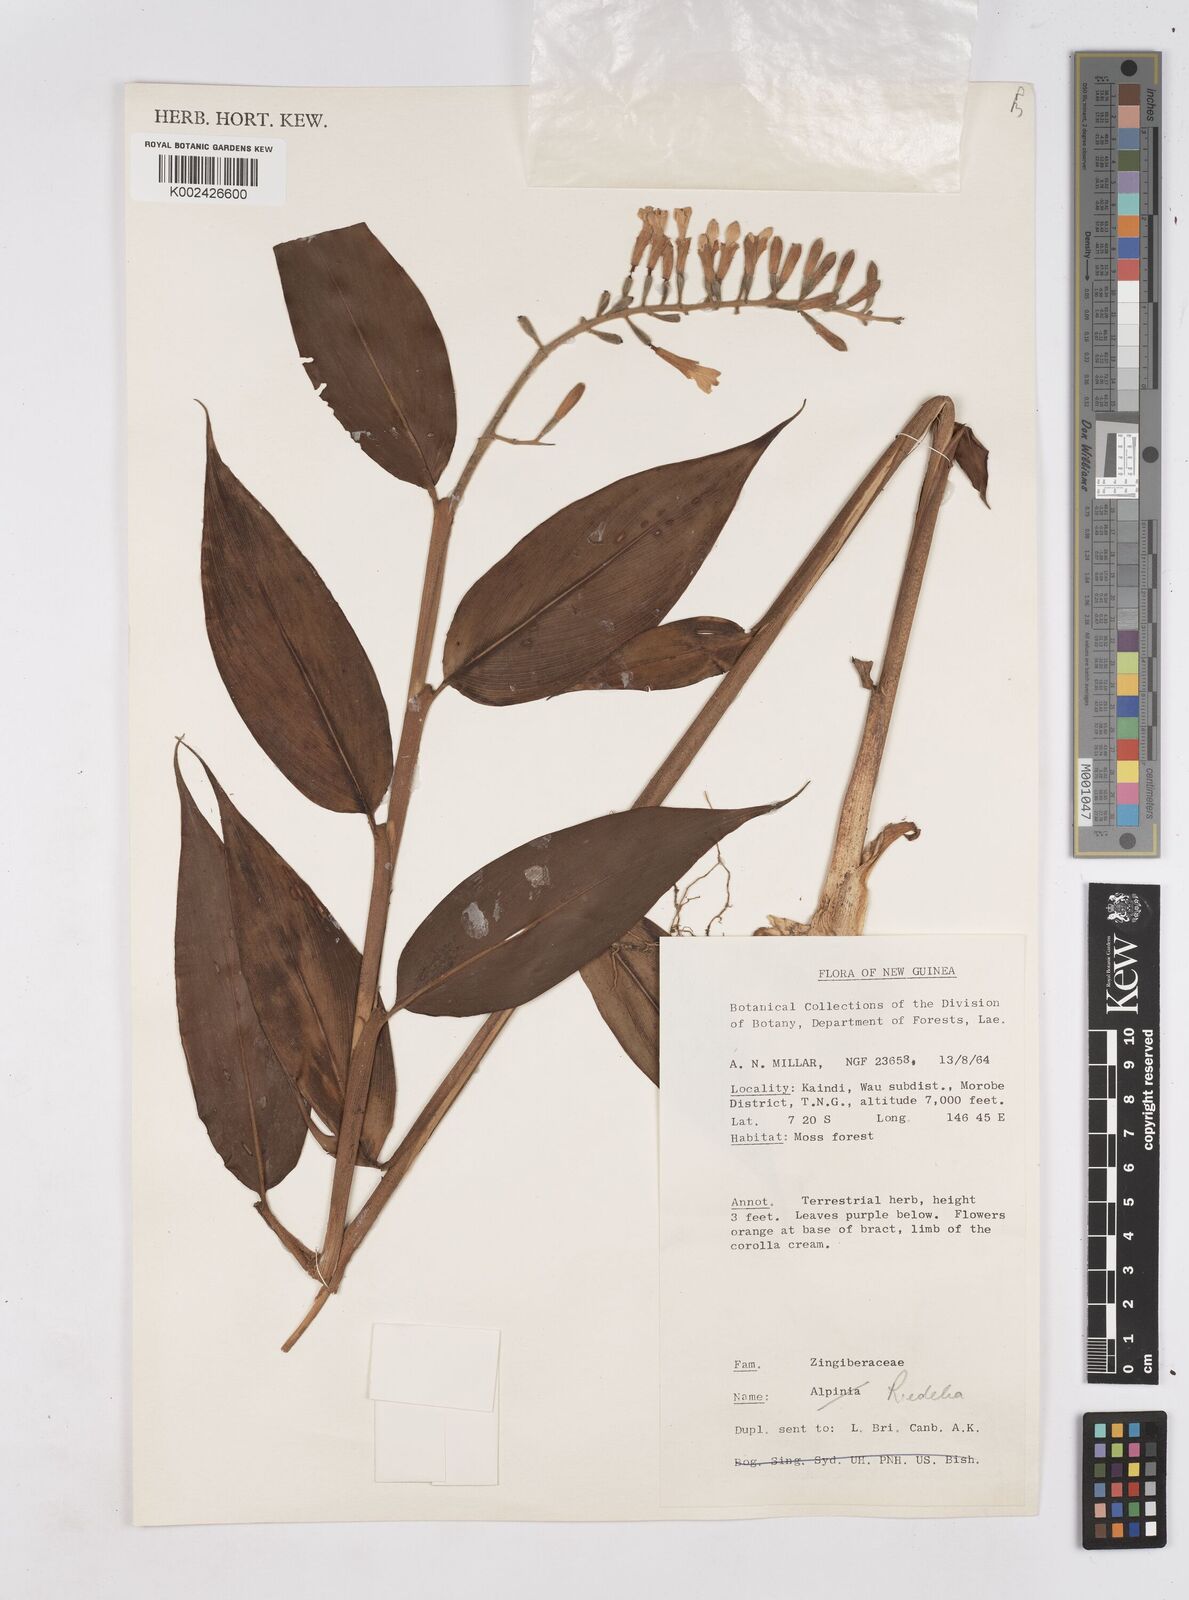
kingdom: Plantae
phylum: Tracheophyta
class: Liliopsida
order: Zingiberales
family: Zingiberaceae
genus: Riedelia
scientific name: Riedelia
